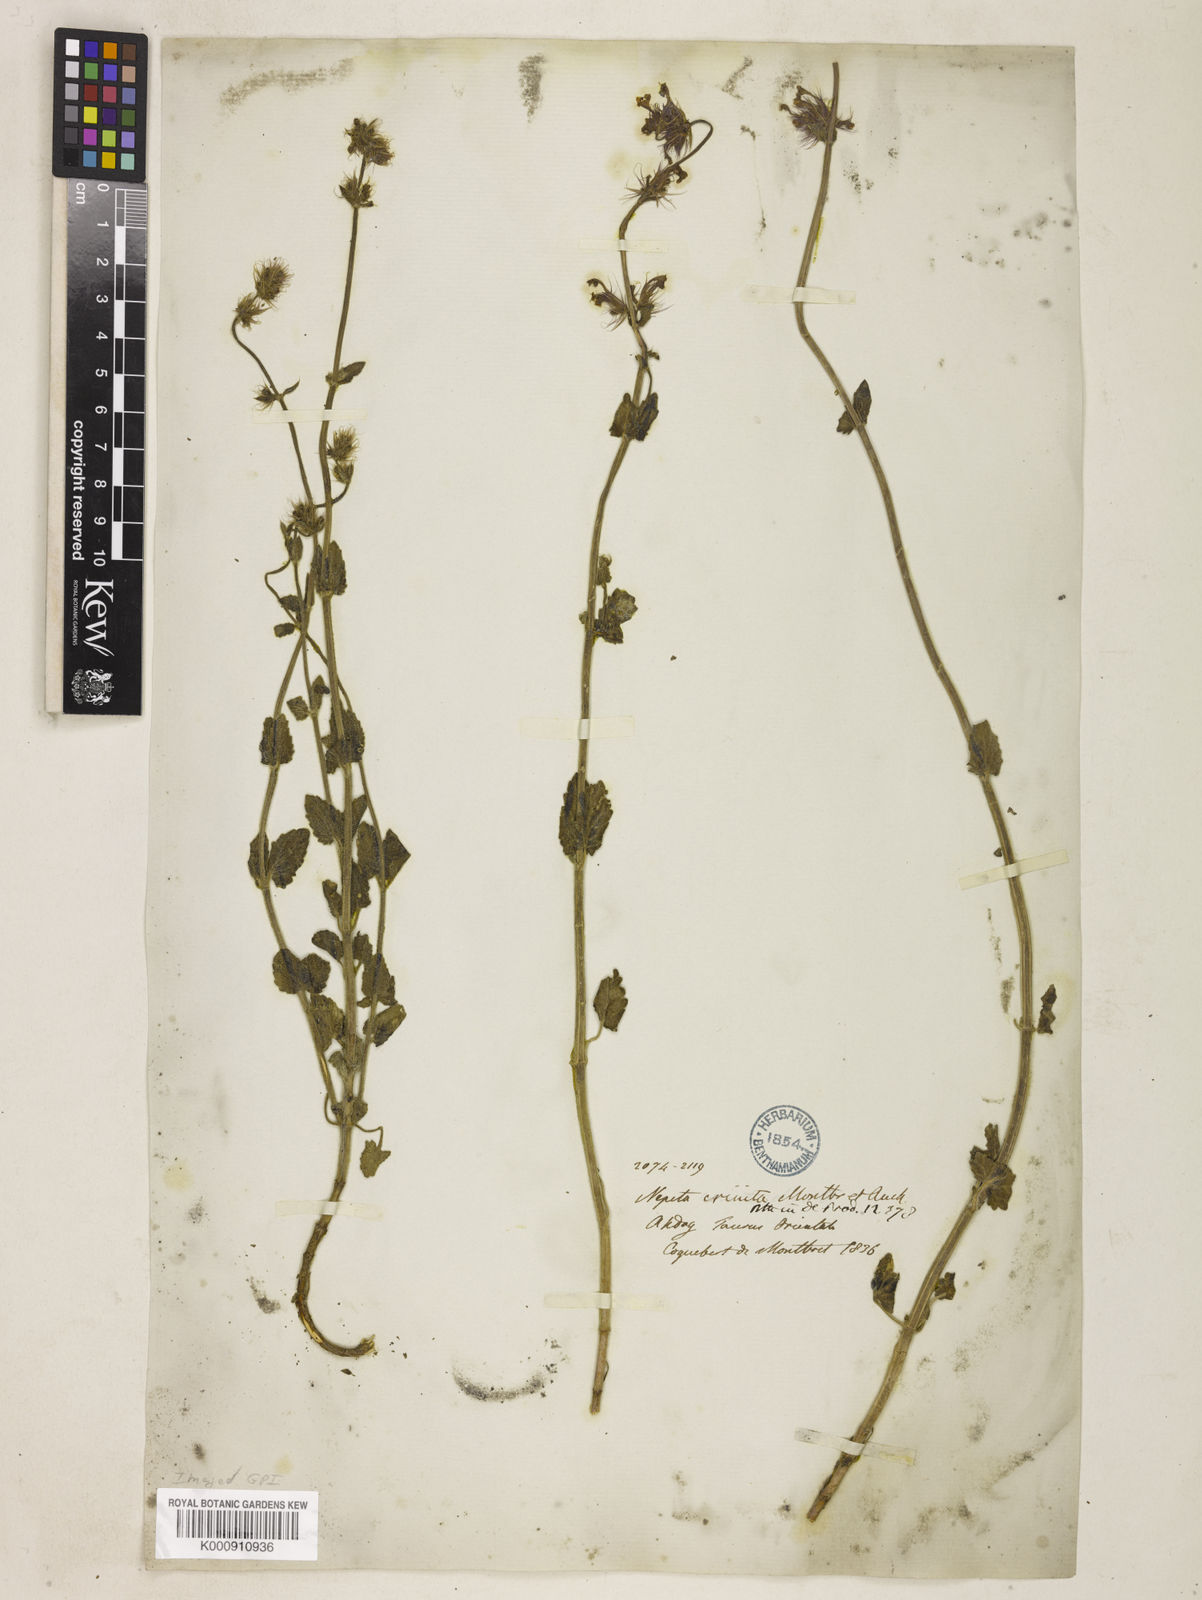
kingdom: Plantae
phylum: Tracheophyta
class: Magnoliopsida
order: Lamiales
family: Lamiaceae
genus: Nepeta
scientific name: Nepeta crinita
